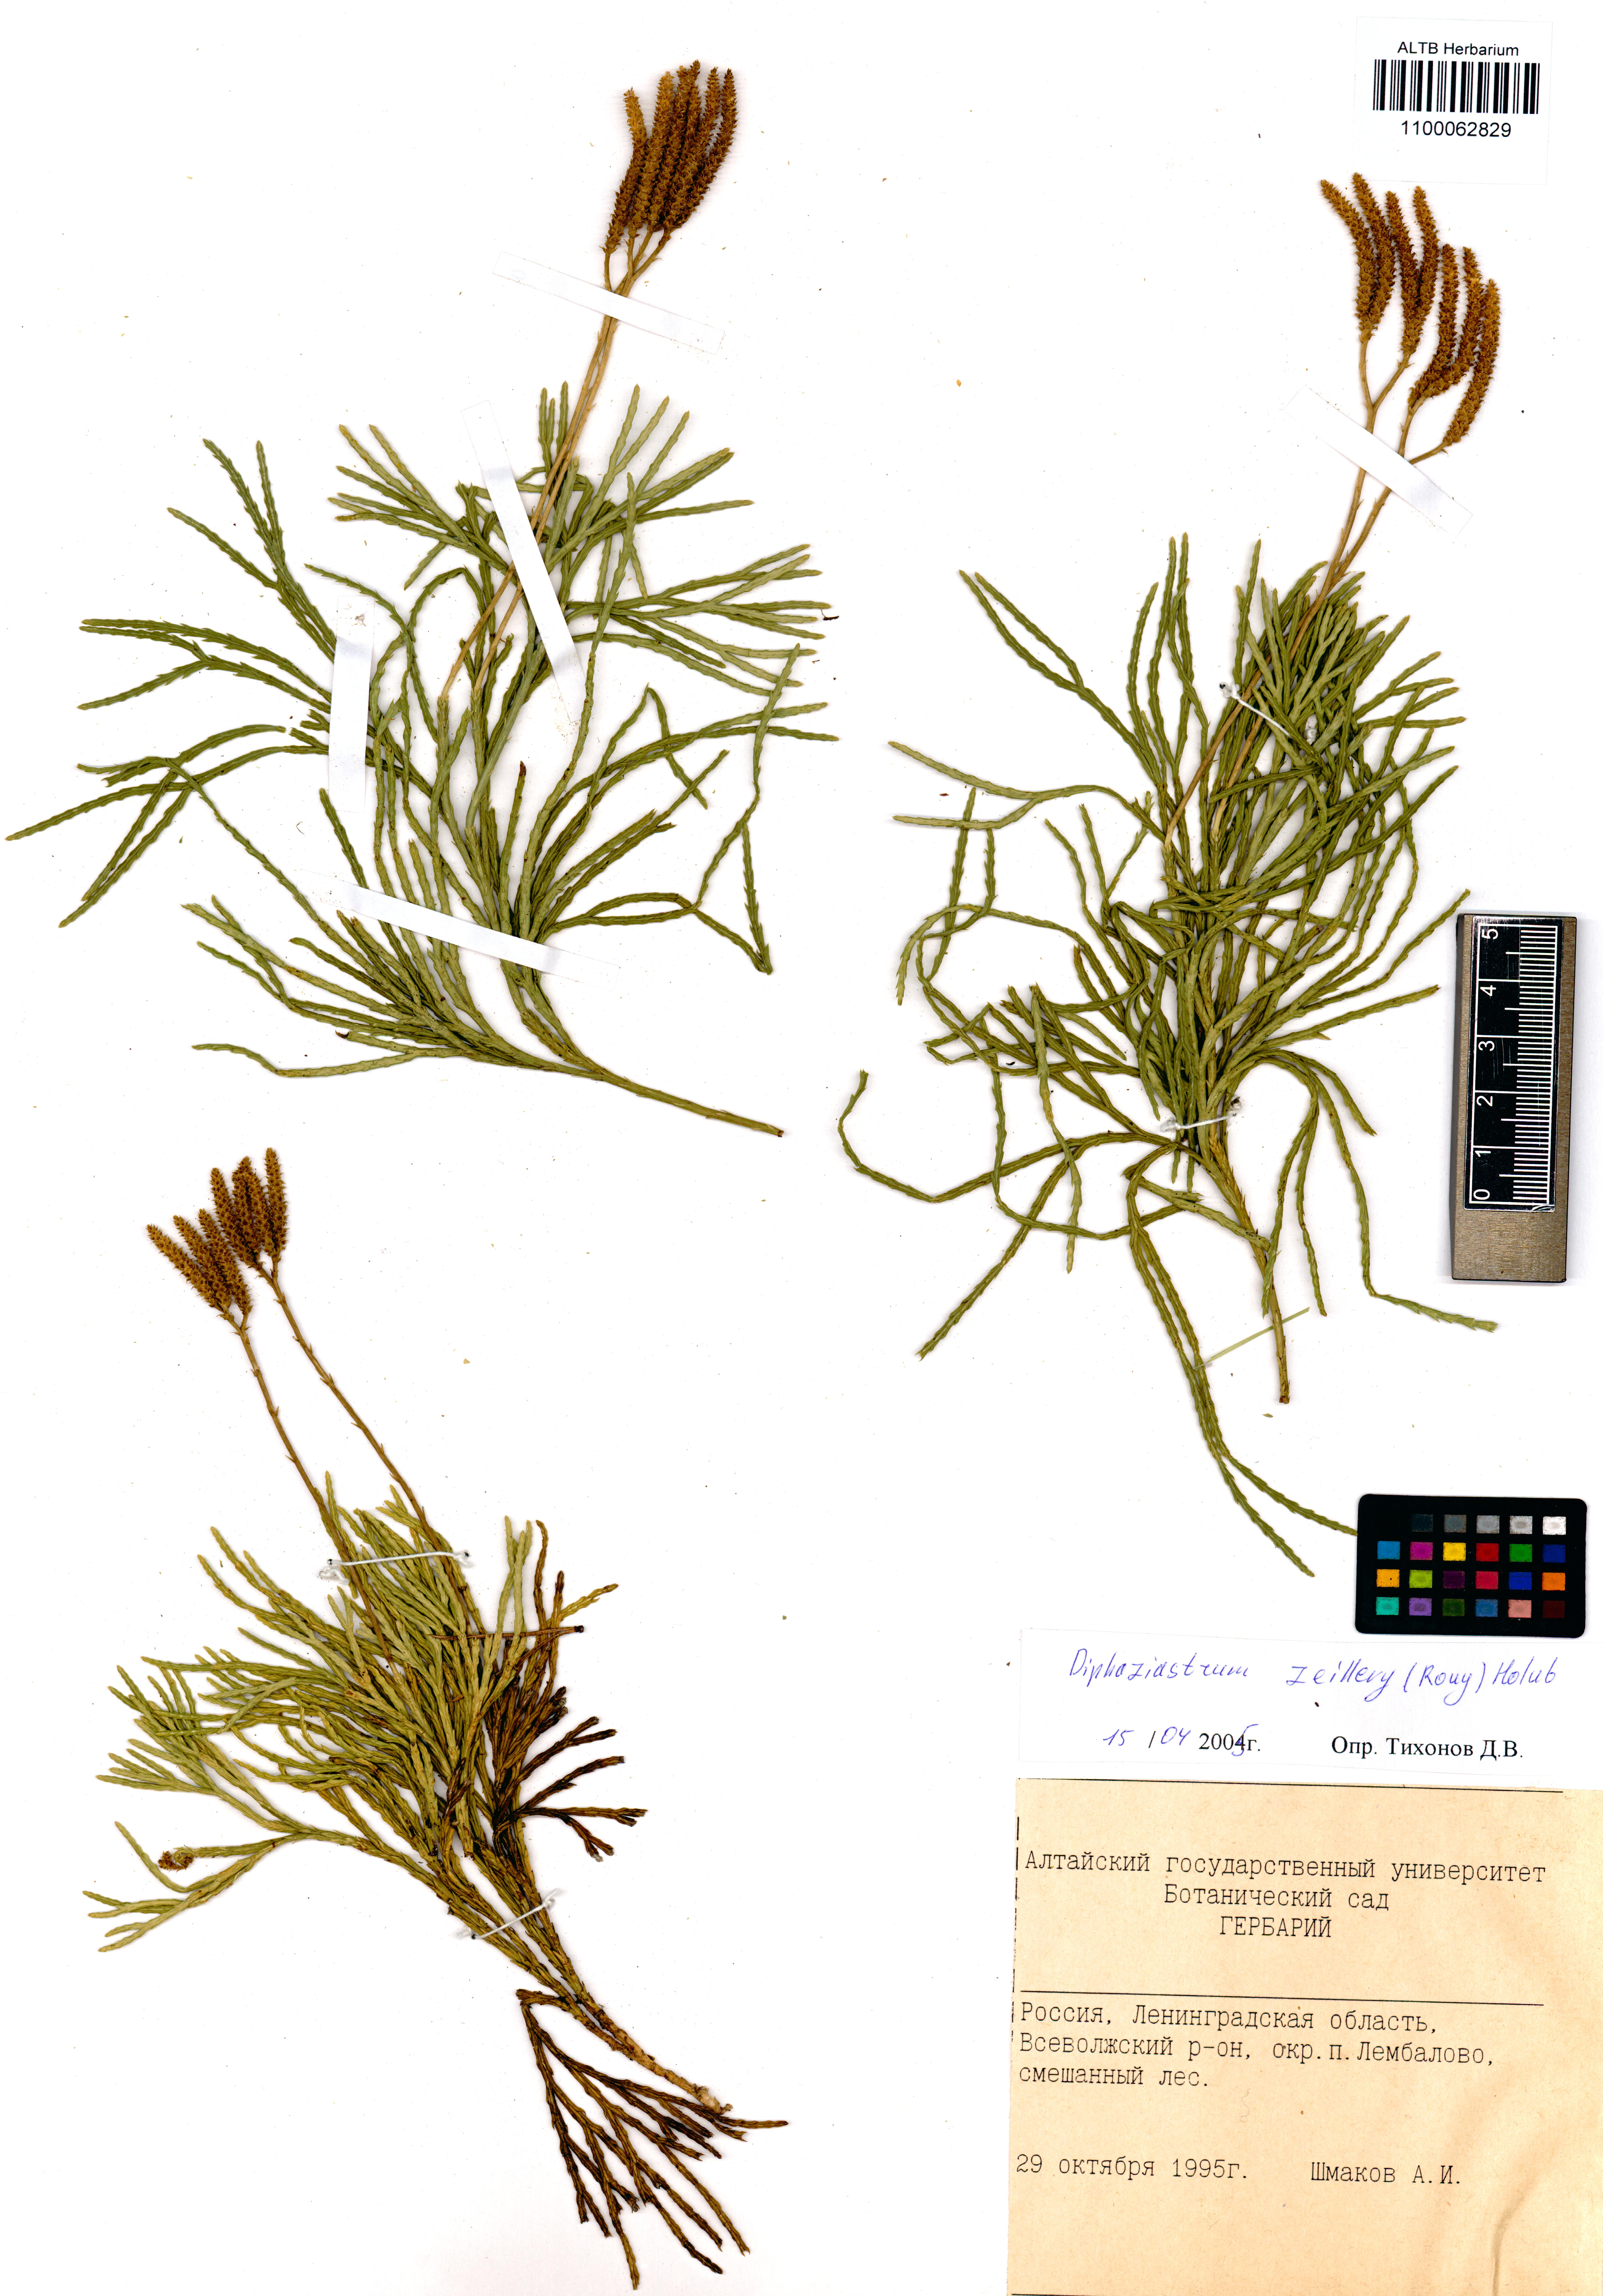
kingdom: Plantae
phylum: Tracheophyta
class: Lycopodiopsida
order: Lycopodiales
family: Lycopodiaceae
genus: Diphasiastrum
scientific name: Diphasiastrum zeilleri
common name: Zeiller's clubmoss
